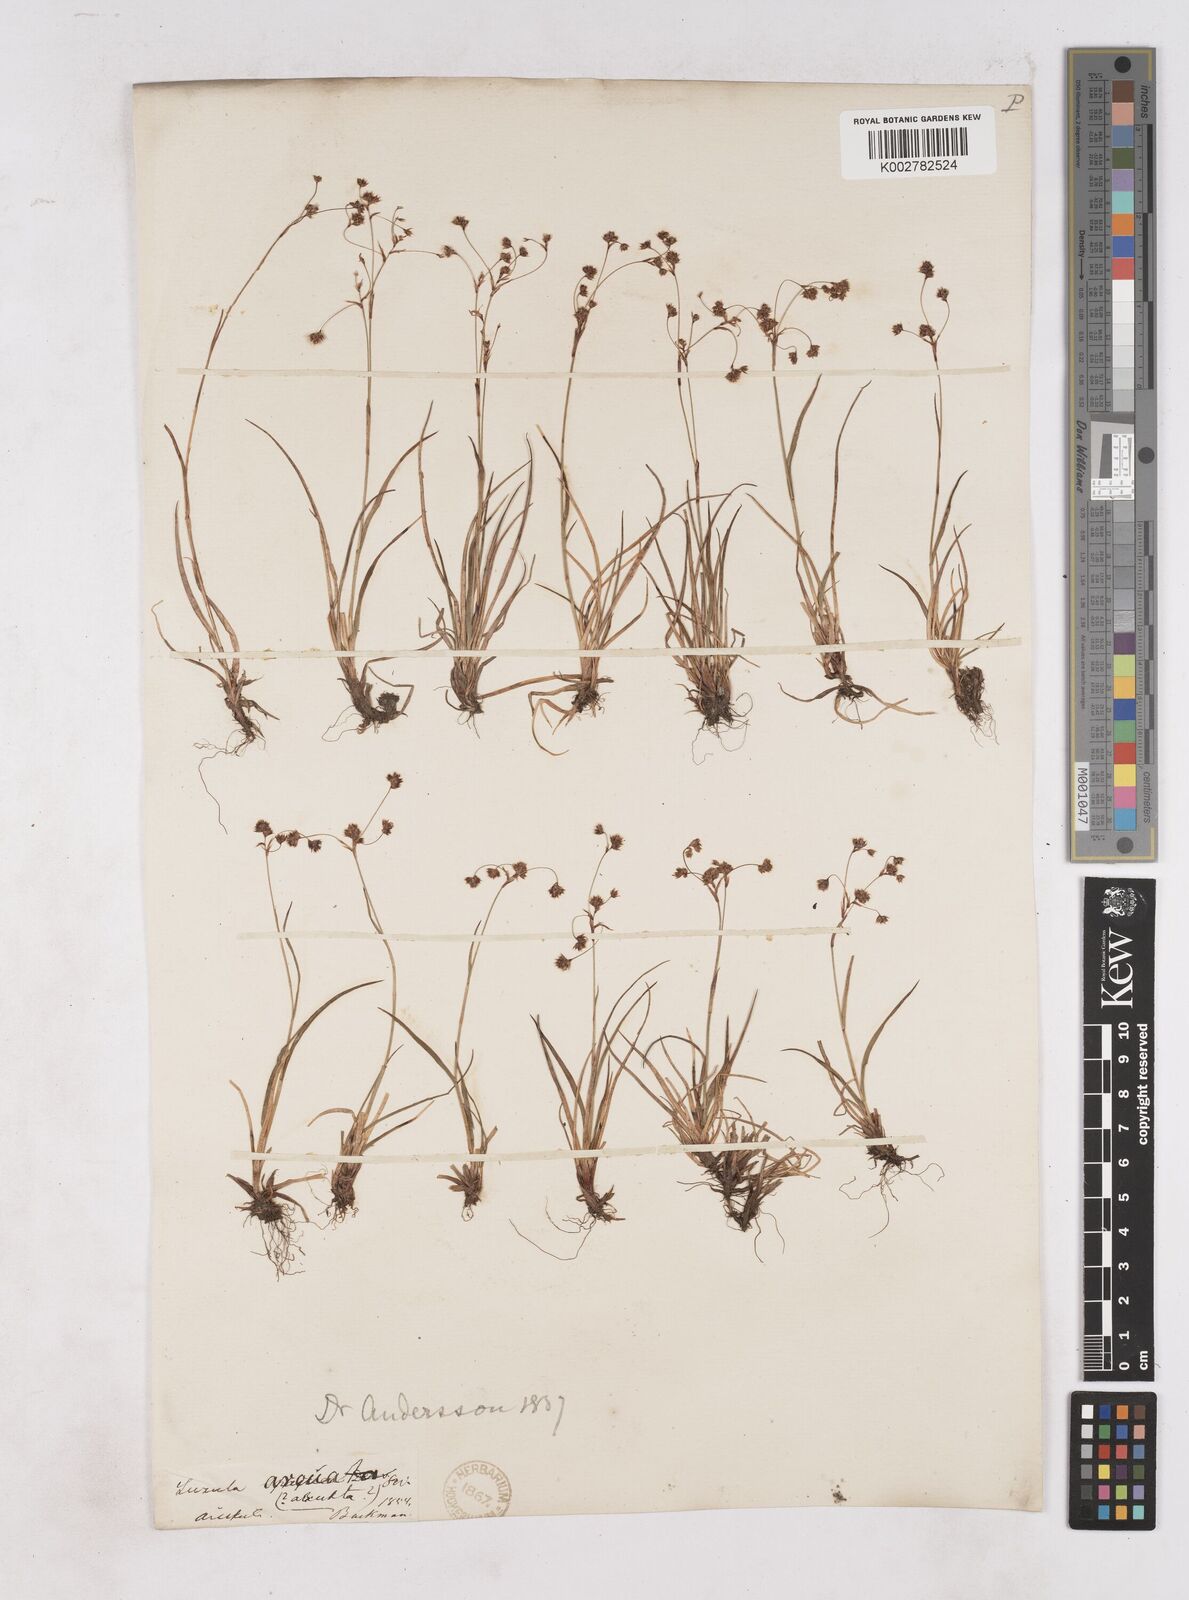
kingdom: Plantae
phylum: Tracheophyta
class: Liliopsida
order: Poales
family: Juncaceae
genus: Luzula
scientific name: Luzula arcuata
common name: Curved wood-rush
